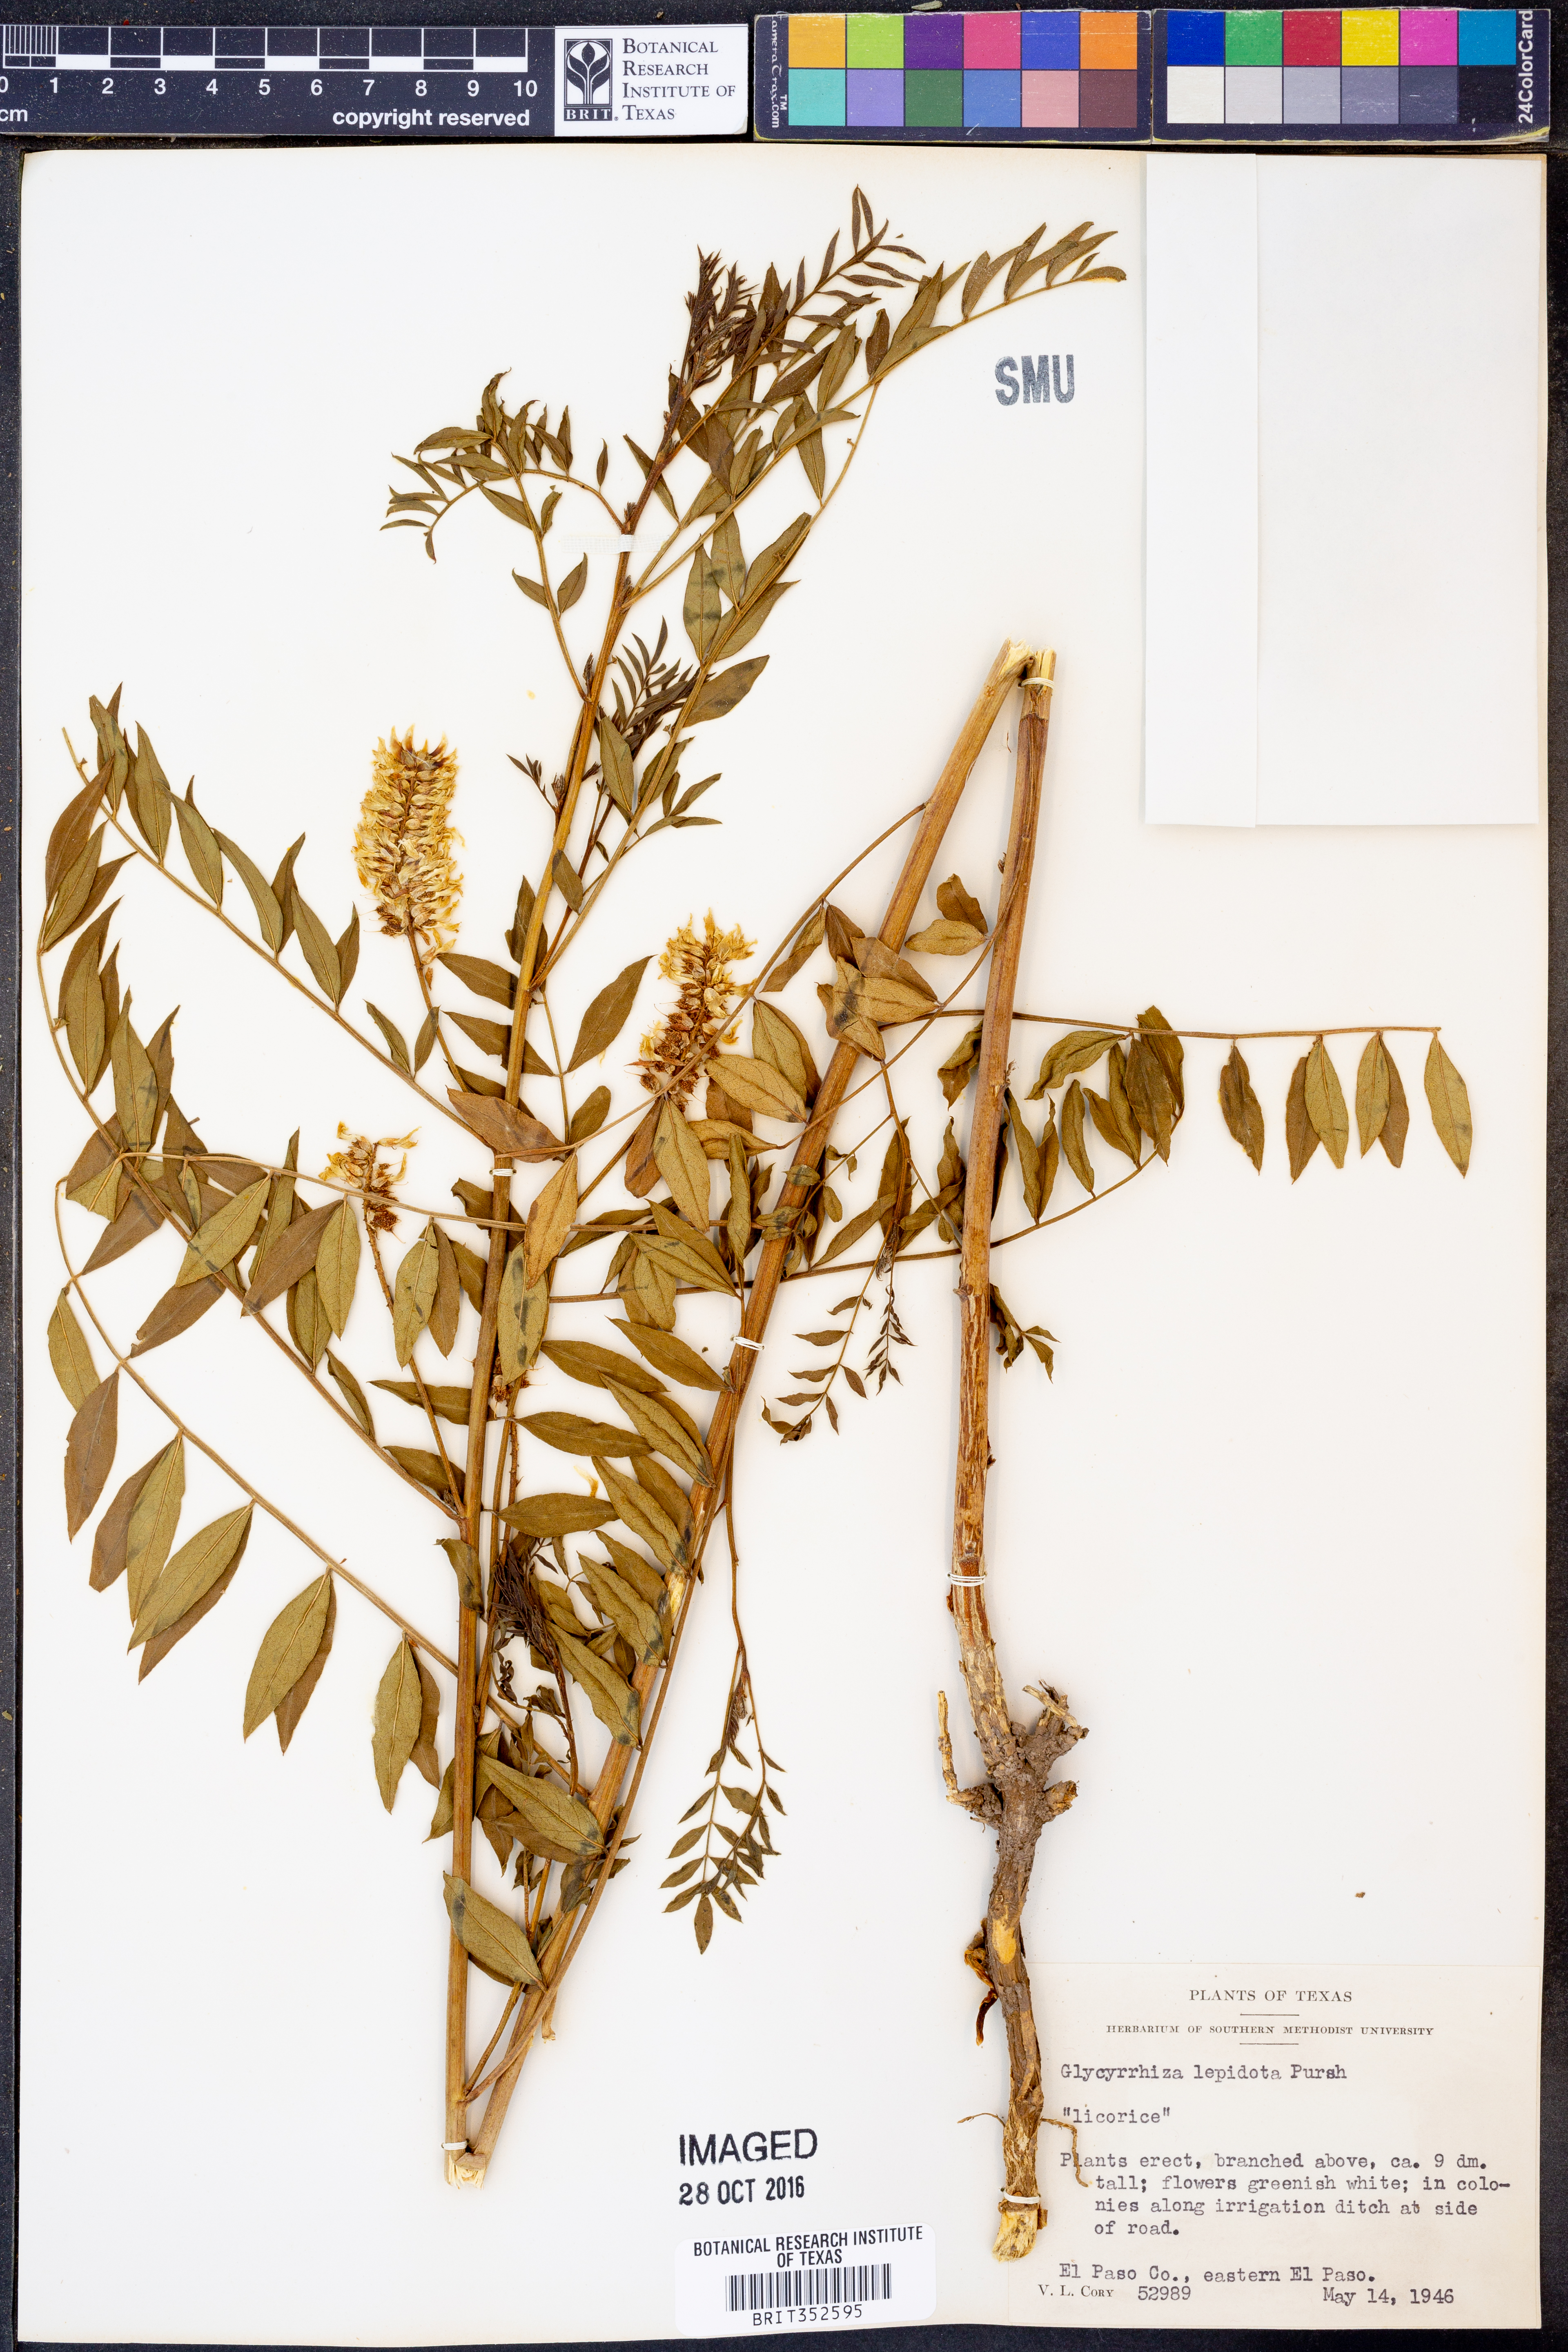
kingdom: Plantae
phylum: Tracheophyta
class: Magnoliopsida
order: Fabales
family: Fabaceae
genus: Glycyrrhiza
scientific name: Glycyrrhiza lepidota
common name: American liquorice
